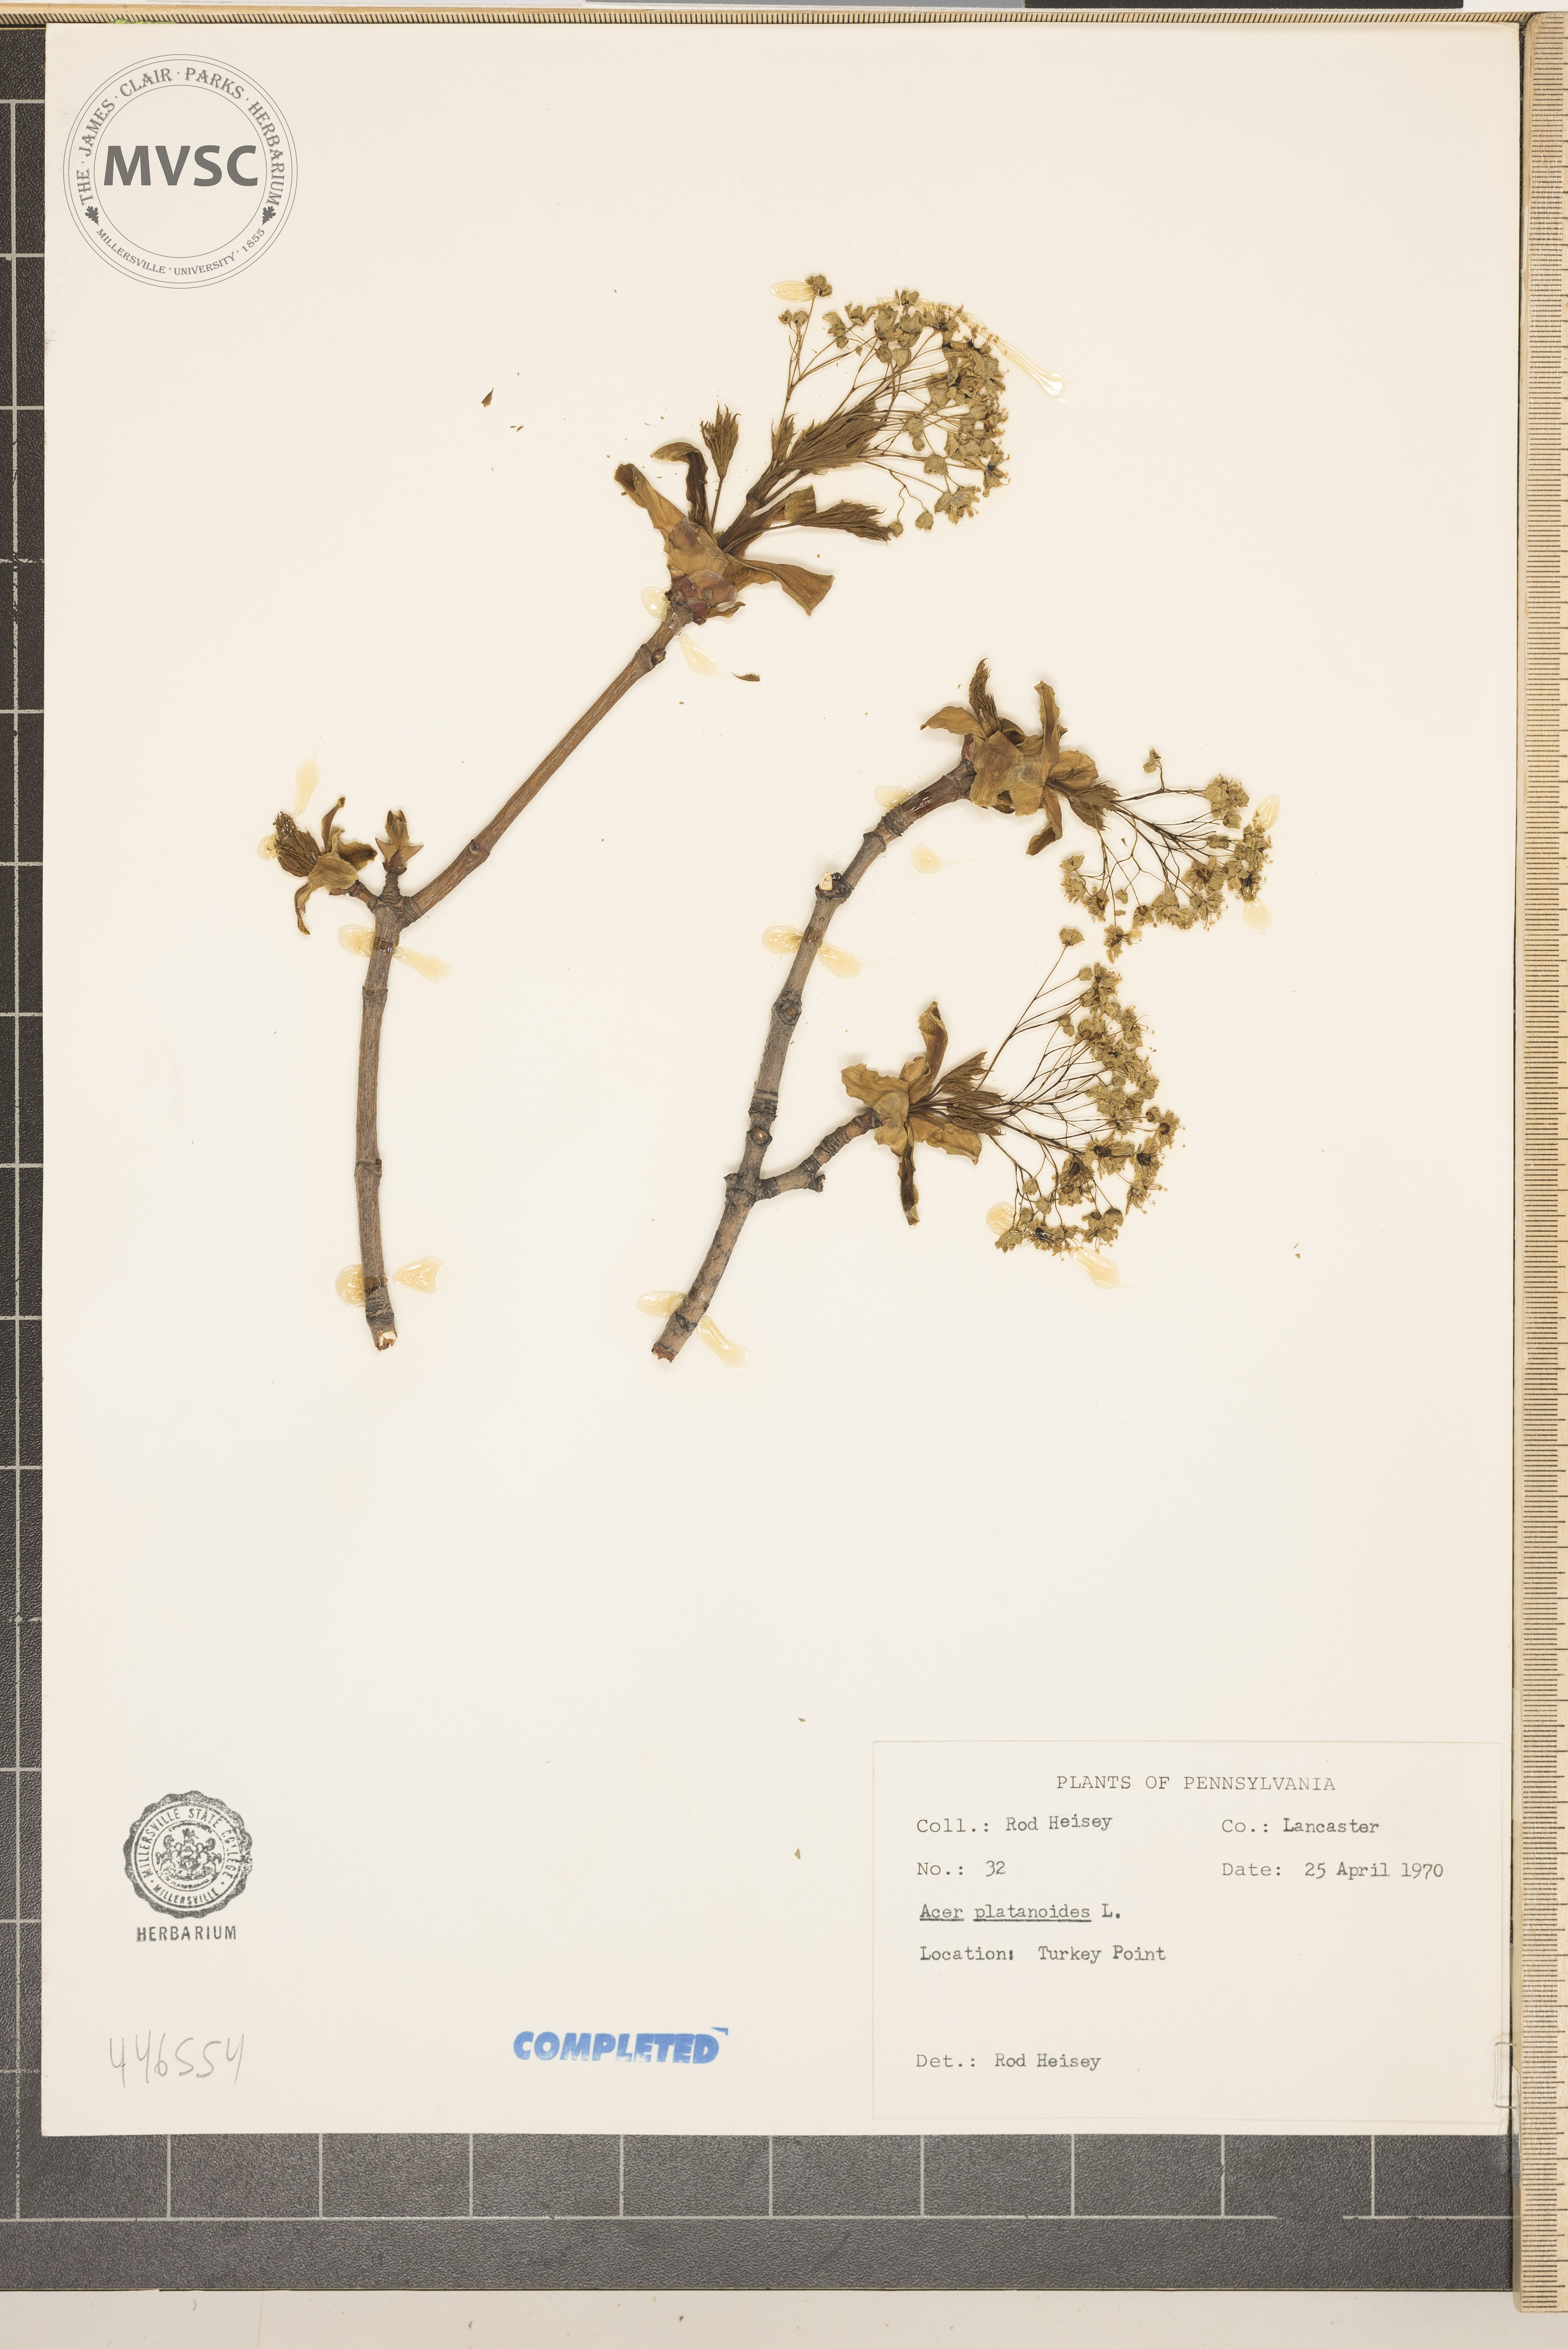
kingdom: Plantae
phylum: Tracheophyta
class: Magnoliopsida
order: Sapindales
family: Sapindaceae
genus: Acer
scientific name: Acer platanoides
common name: Norway maple
